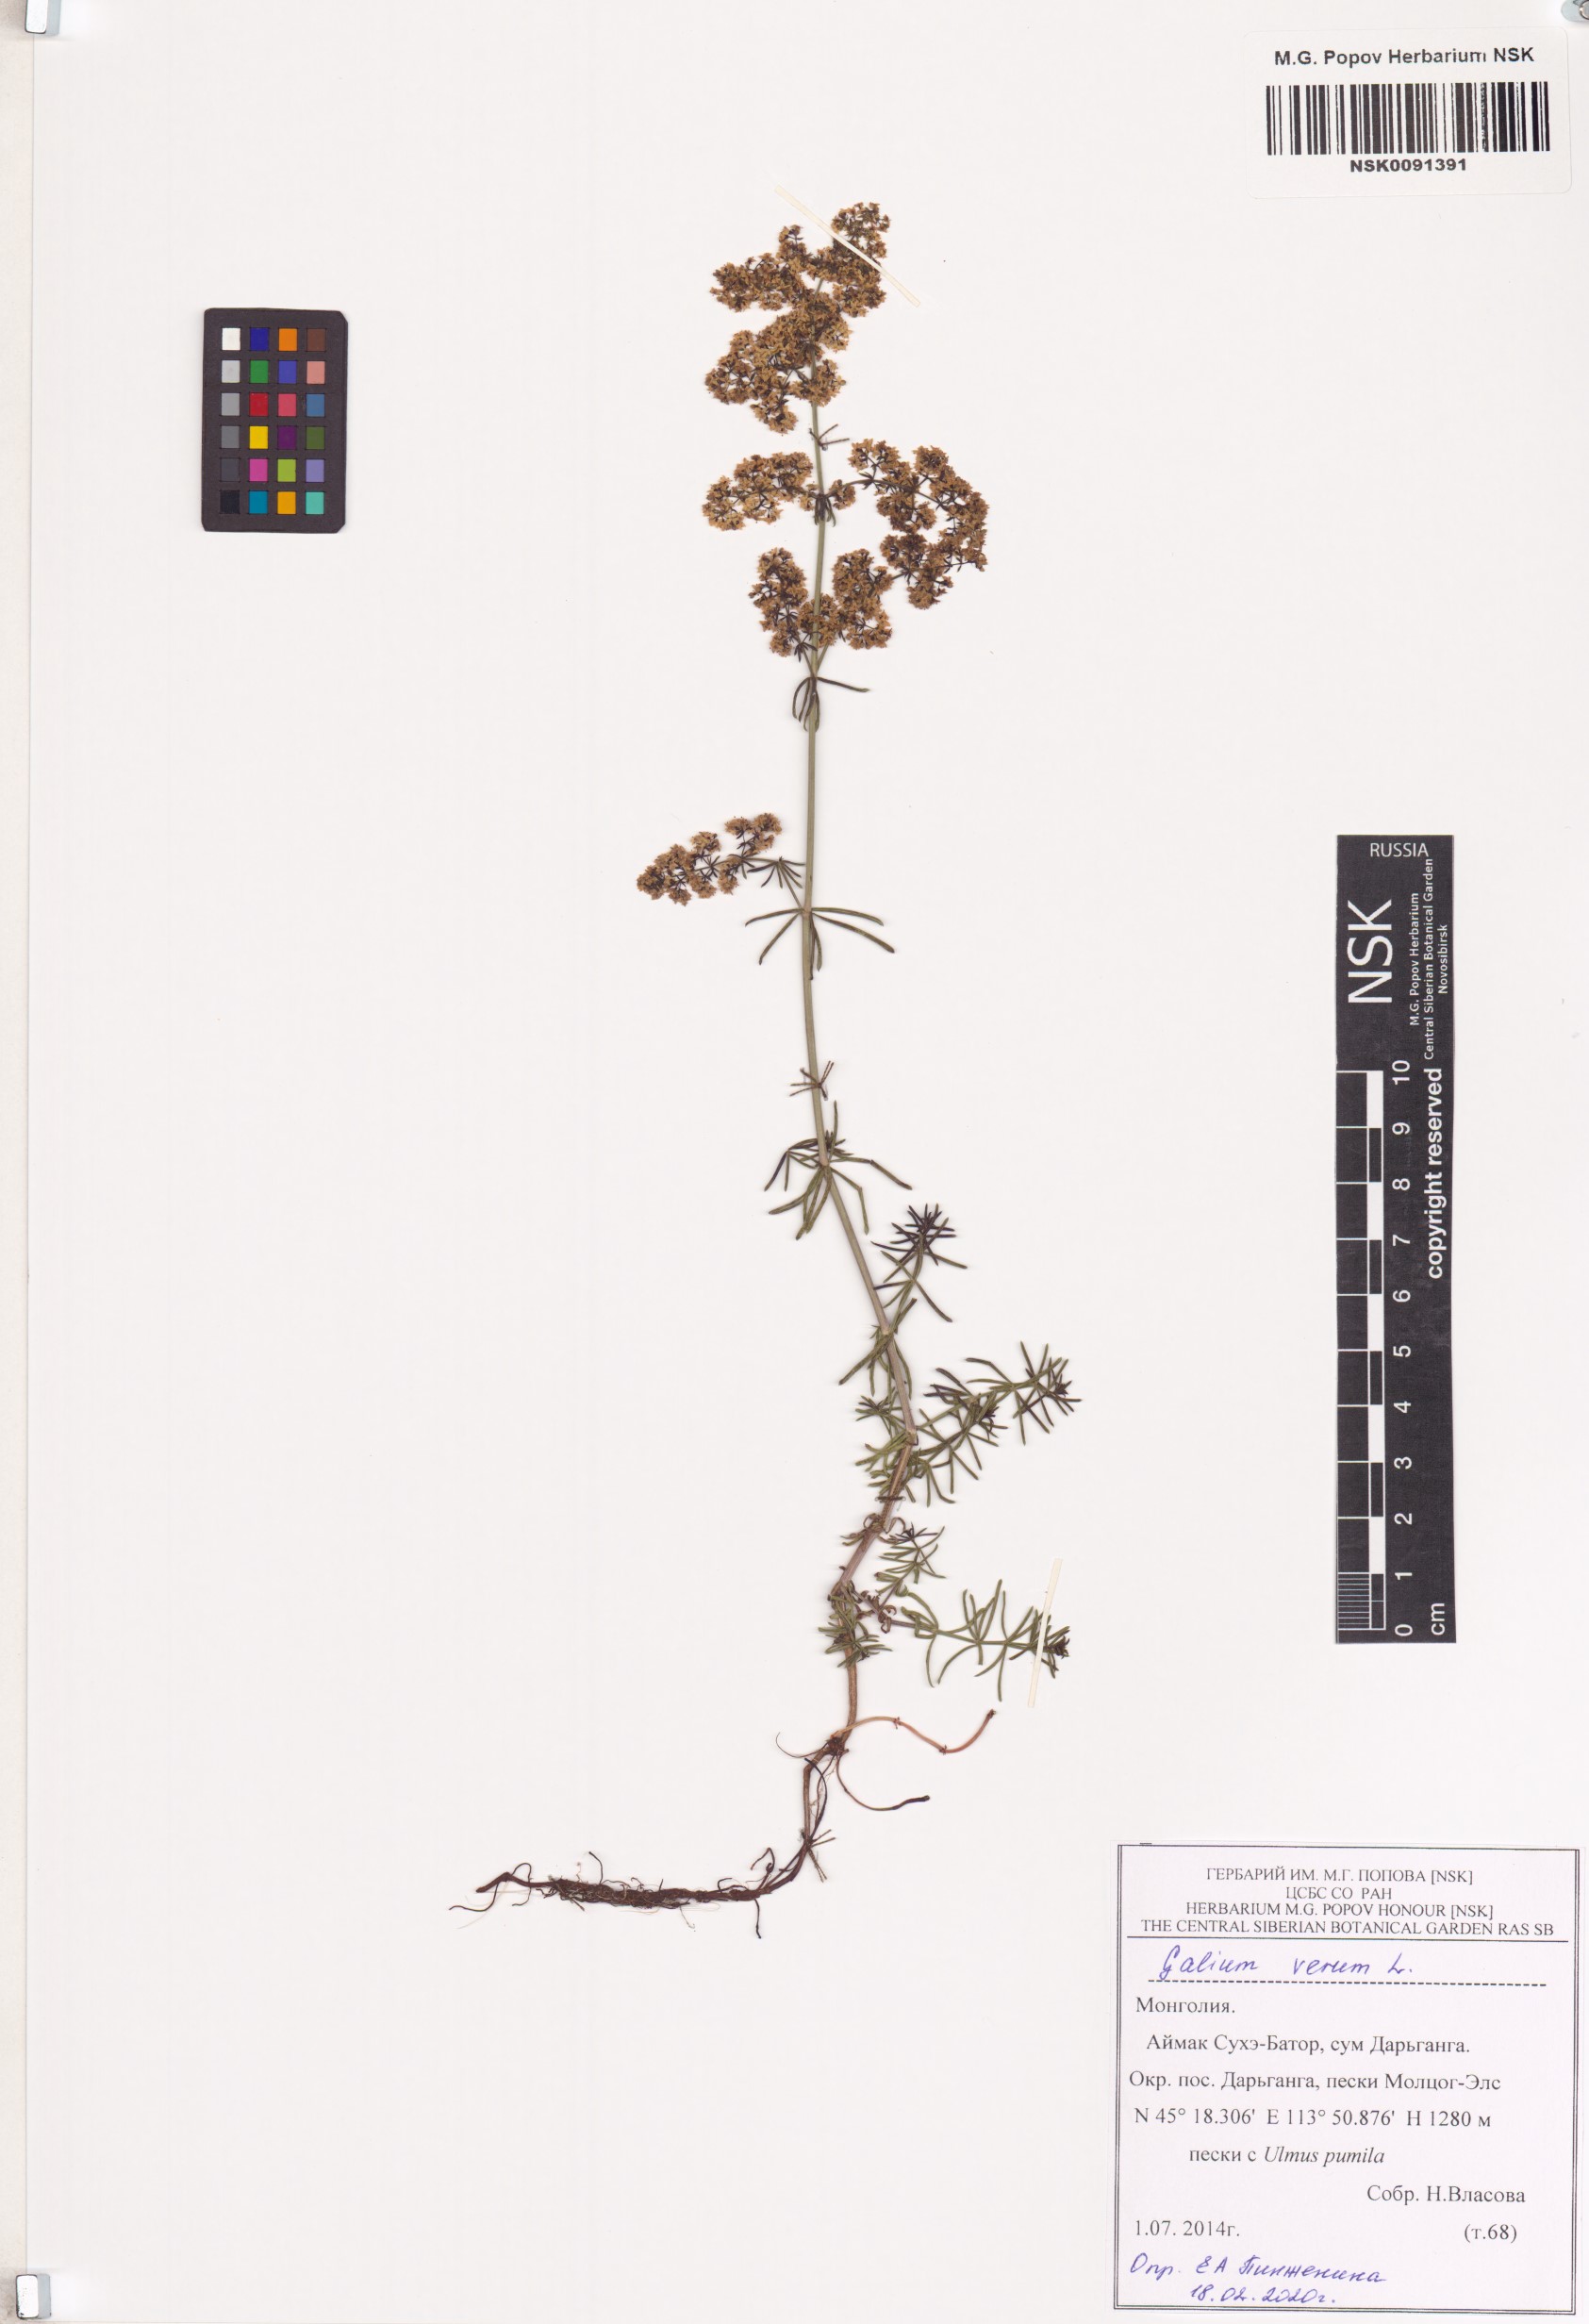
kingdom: Plantae
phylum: Tracheophyta
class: Magnoliopsida
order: Gentianales
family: Rubiaceae
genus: Galium
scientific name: Galium verum
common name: Lady's bedstraw
